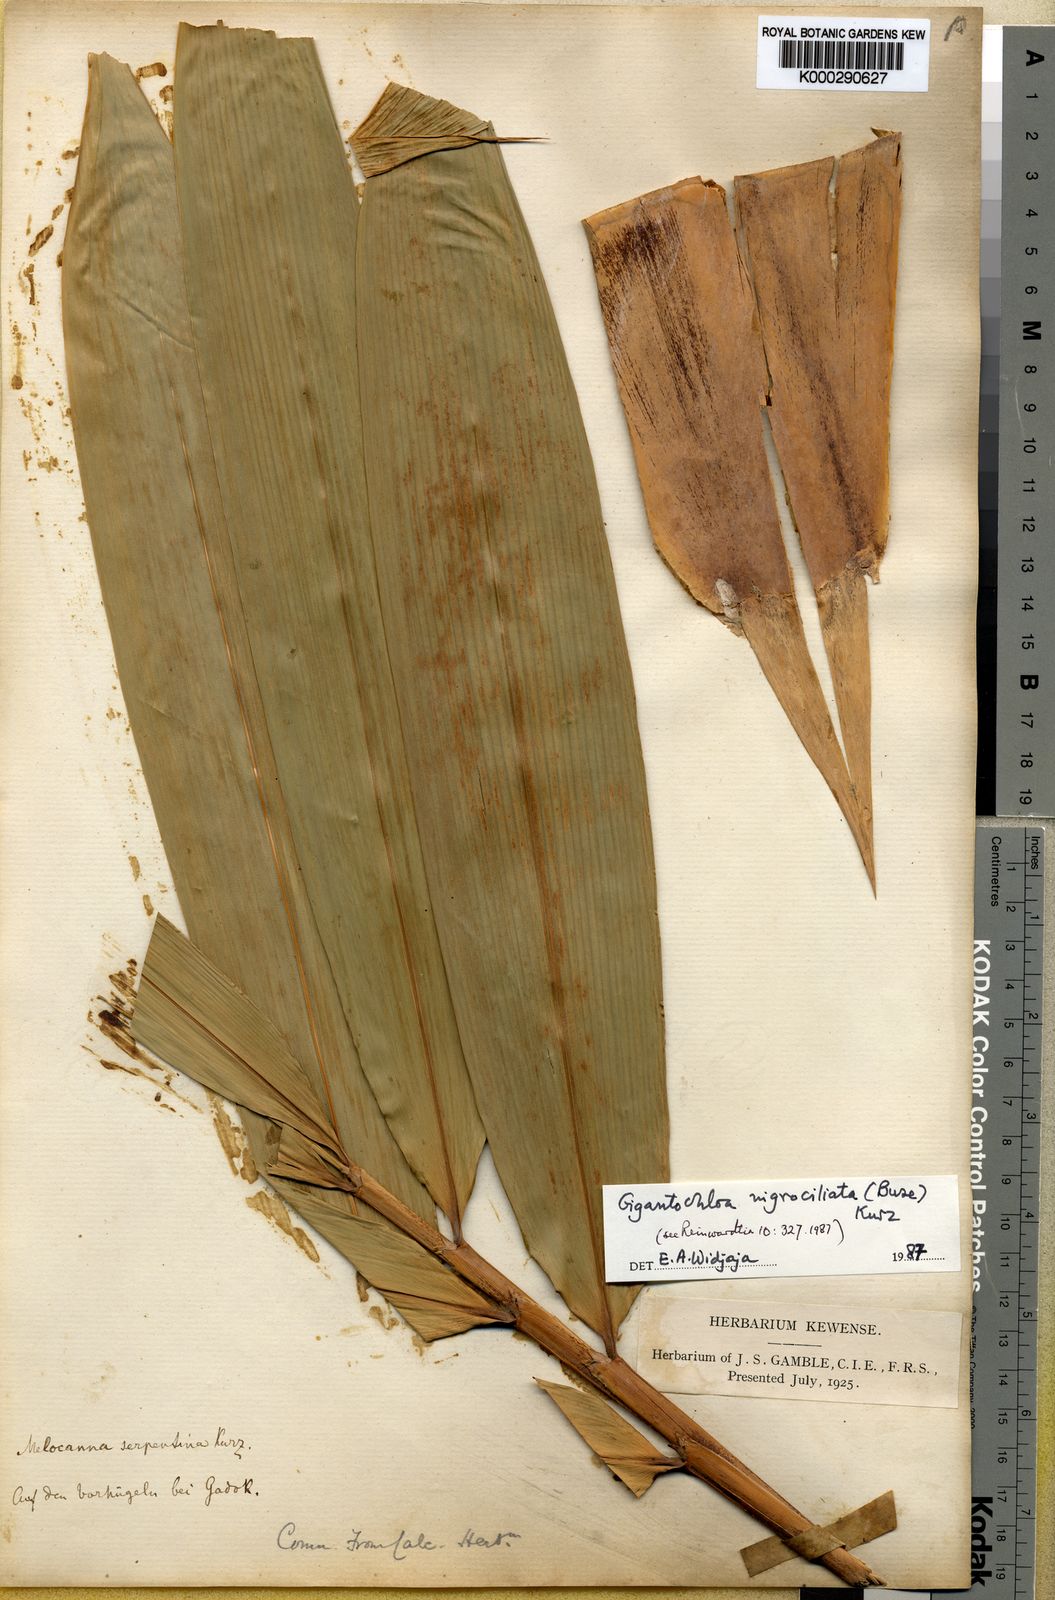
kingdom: Plantae
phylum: Tracheophyta
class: Liliopsida
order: Poales
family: Poaceae
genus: Gigantochloa
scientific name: Gigantochloa nigrociliata
